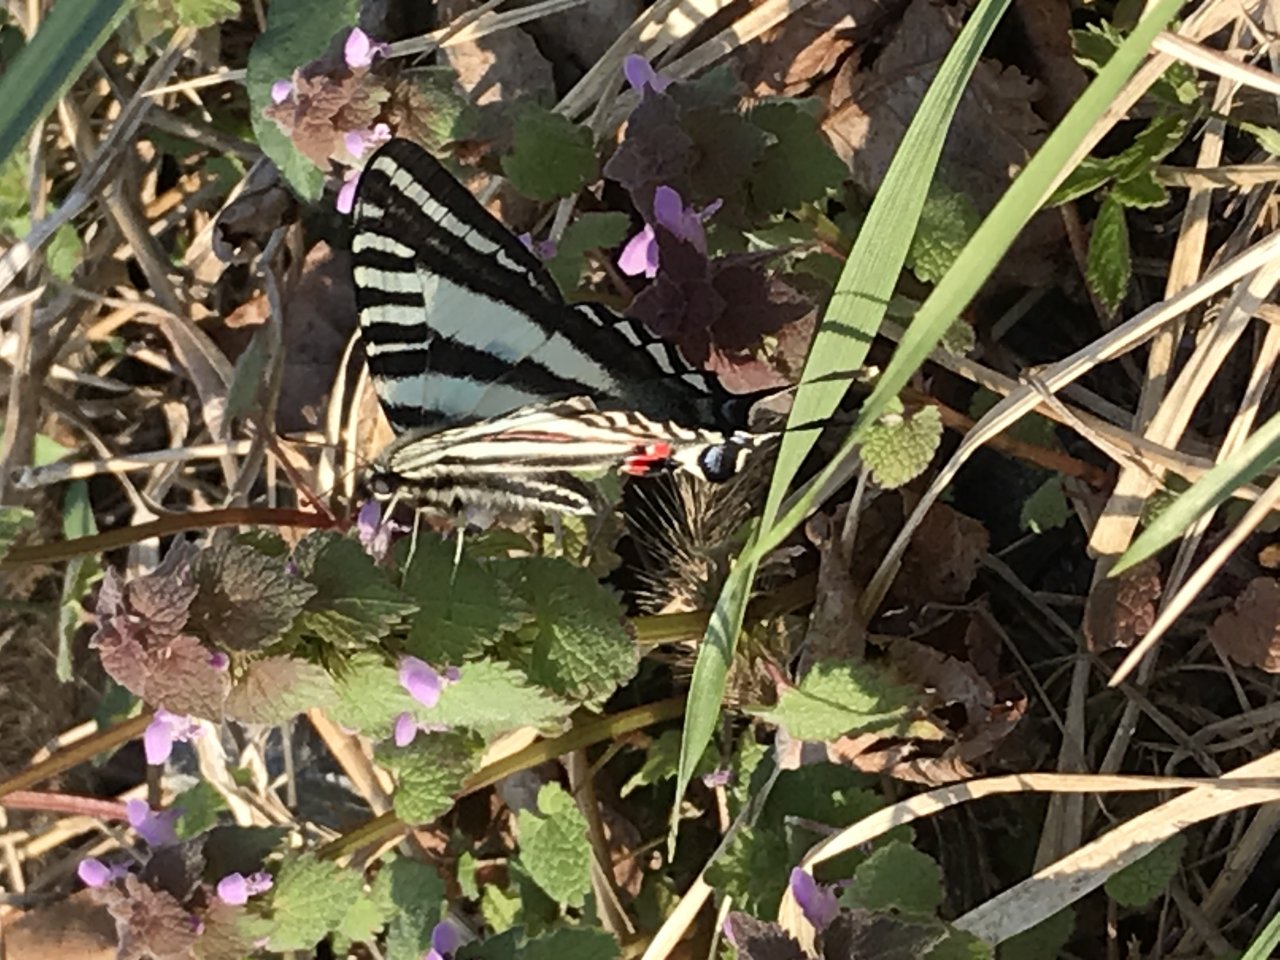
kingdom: Animalia
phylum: Arthropoda
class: Insecta
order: Lepidoptera
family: Papilionidae
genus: Protographium
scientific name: Protographium marcellus
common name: Zebra Swallowtail
